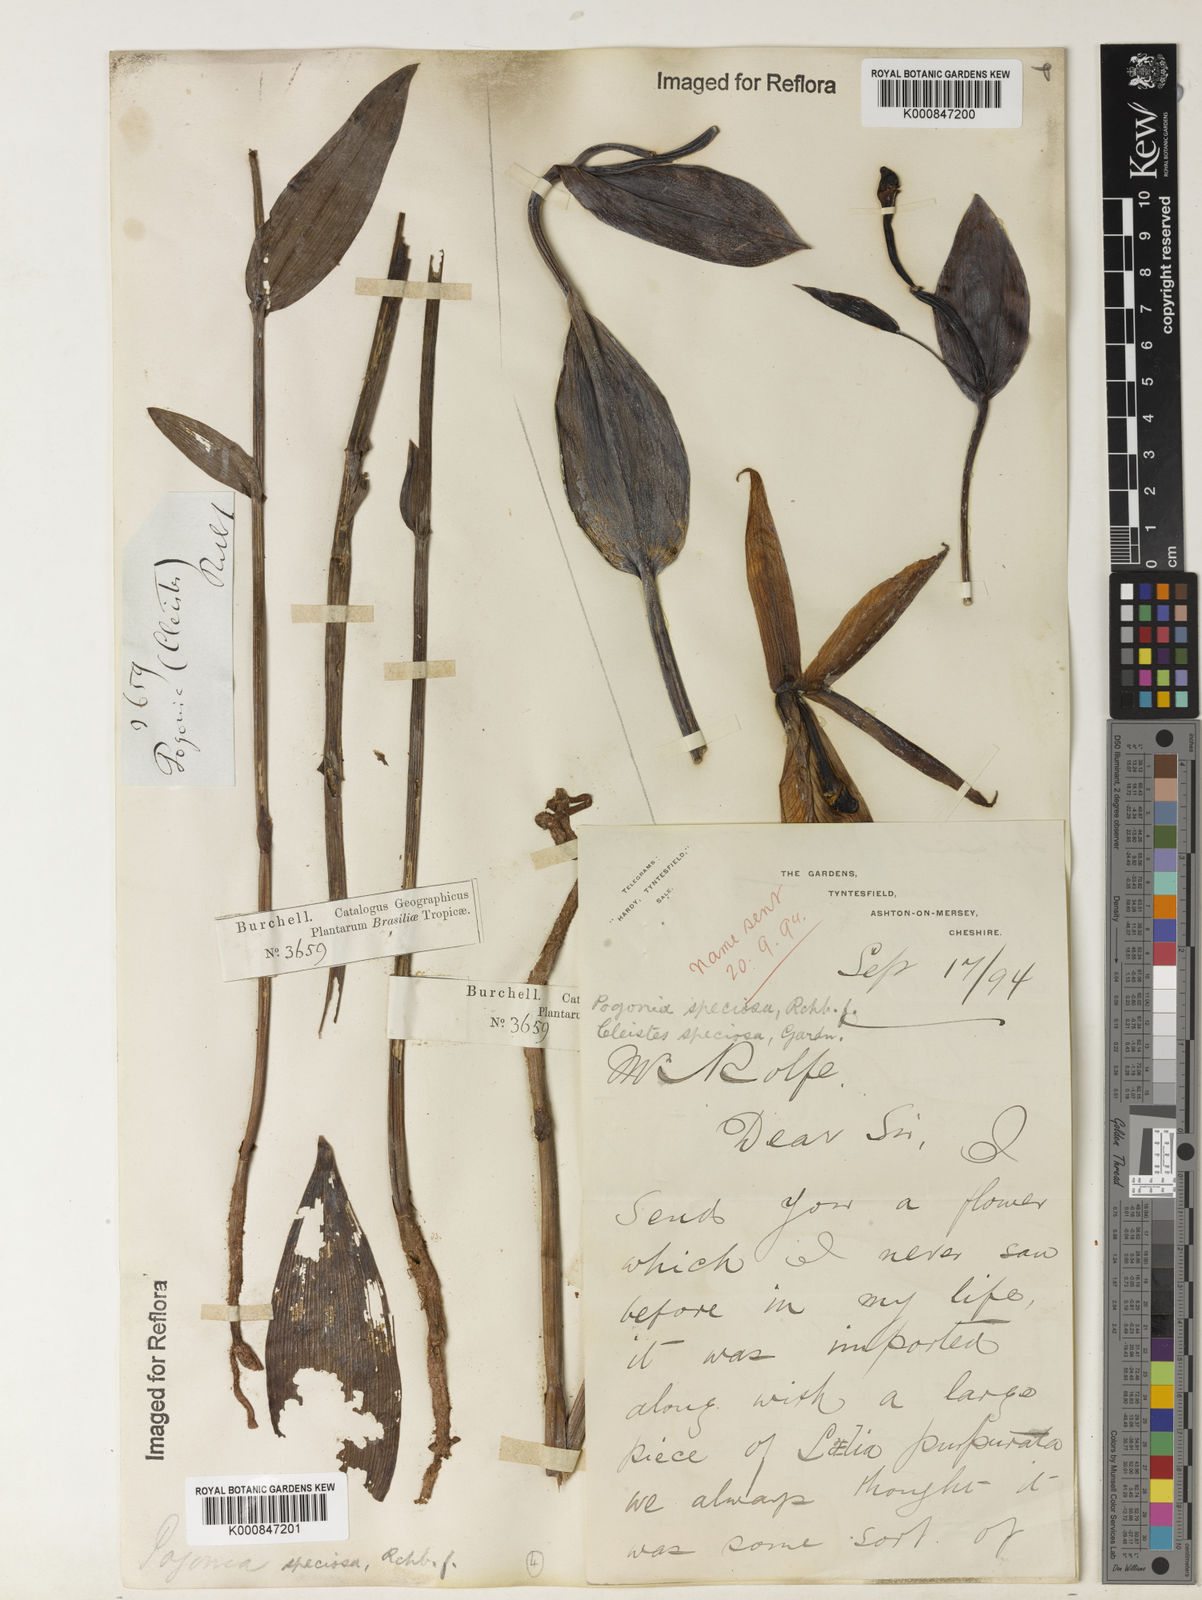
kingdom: Plantae
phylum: Tracheophyta
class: Liliopsida
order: Asparagales
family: Orchidaceae
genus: Cleistes
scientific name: Cleistes speciosa
